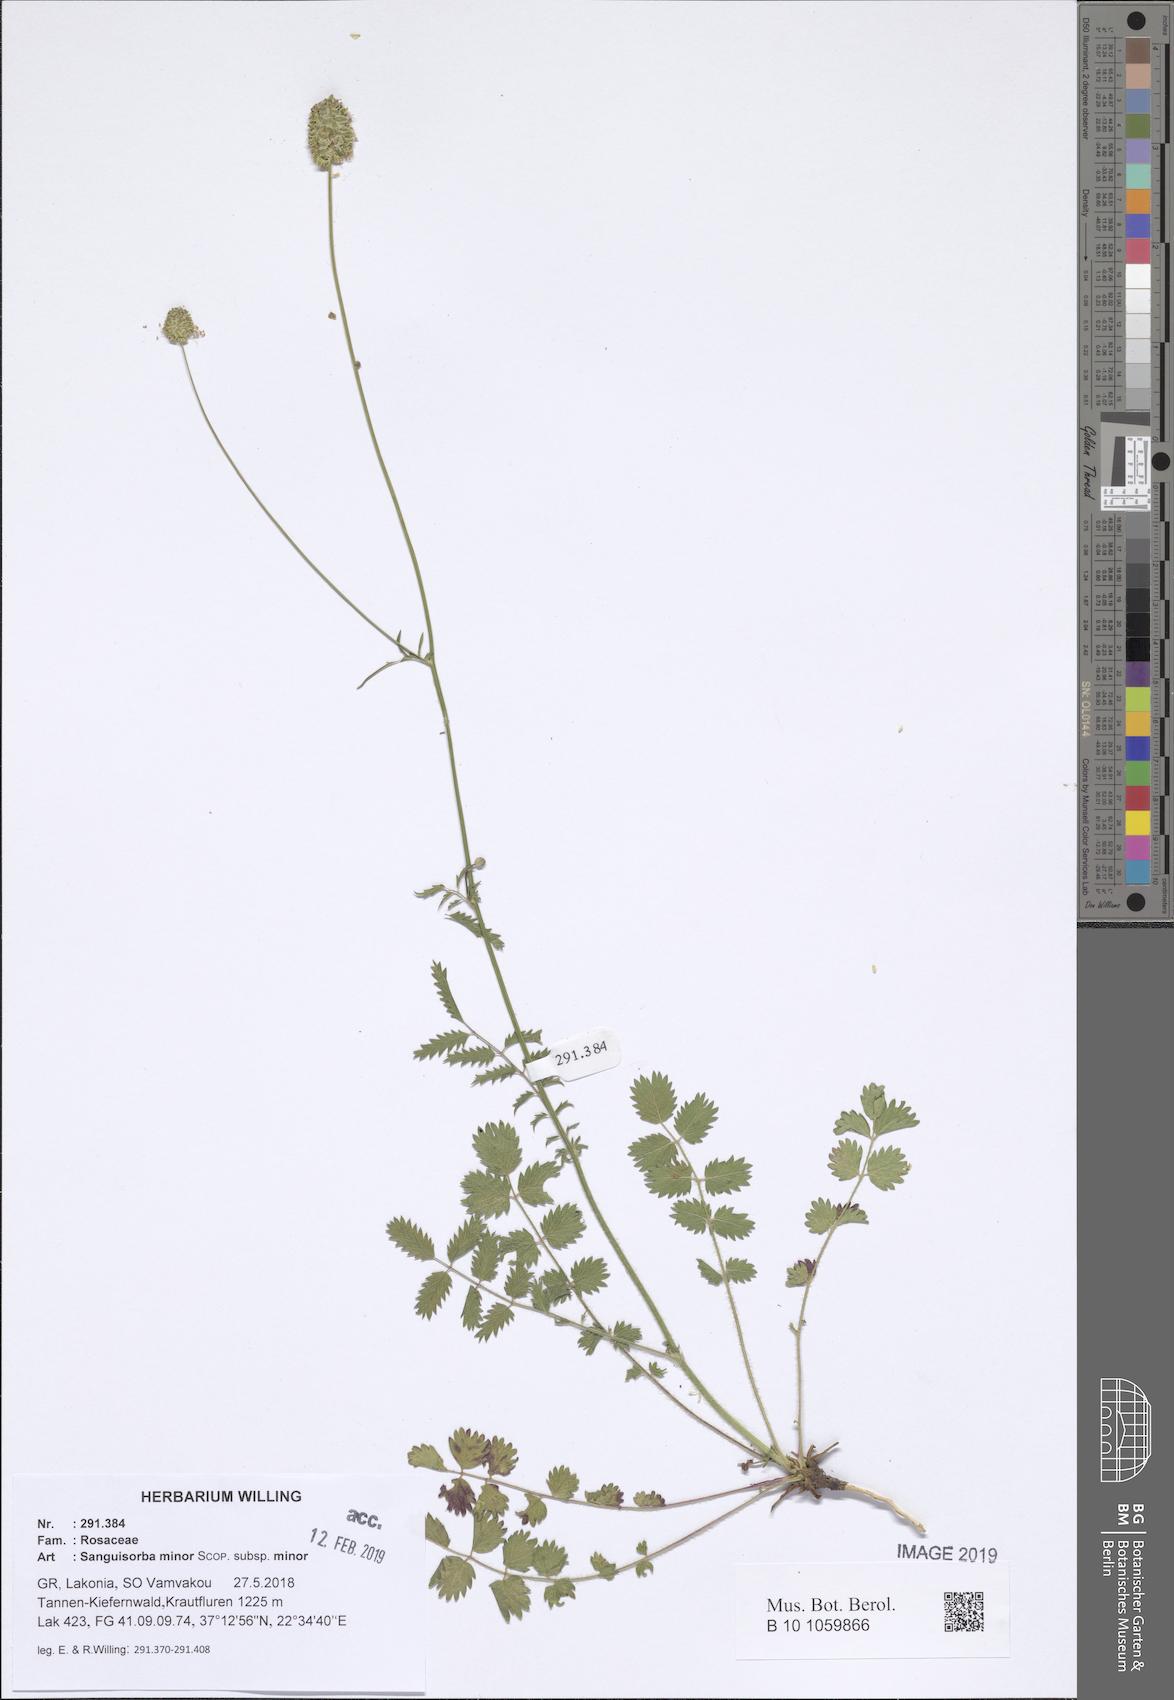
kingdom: Plantae
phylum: Tracheophyta
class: Magnoliopsida
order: Rosales
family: Rosaceae
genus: Poterium
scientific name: Poterium sanguisorba
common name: Salad burnet
